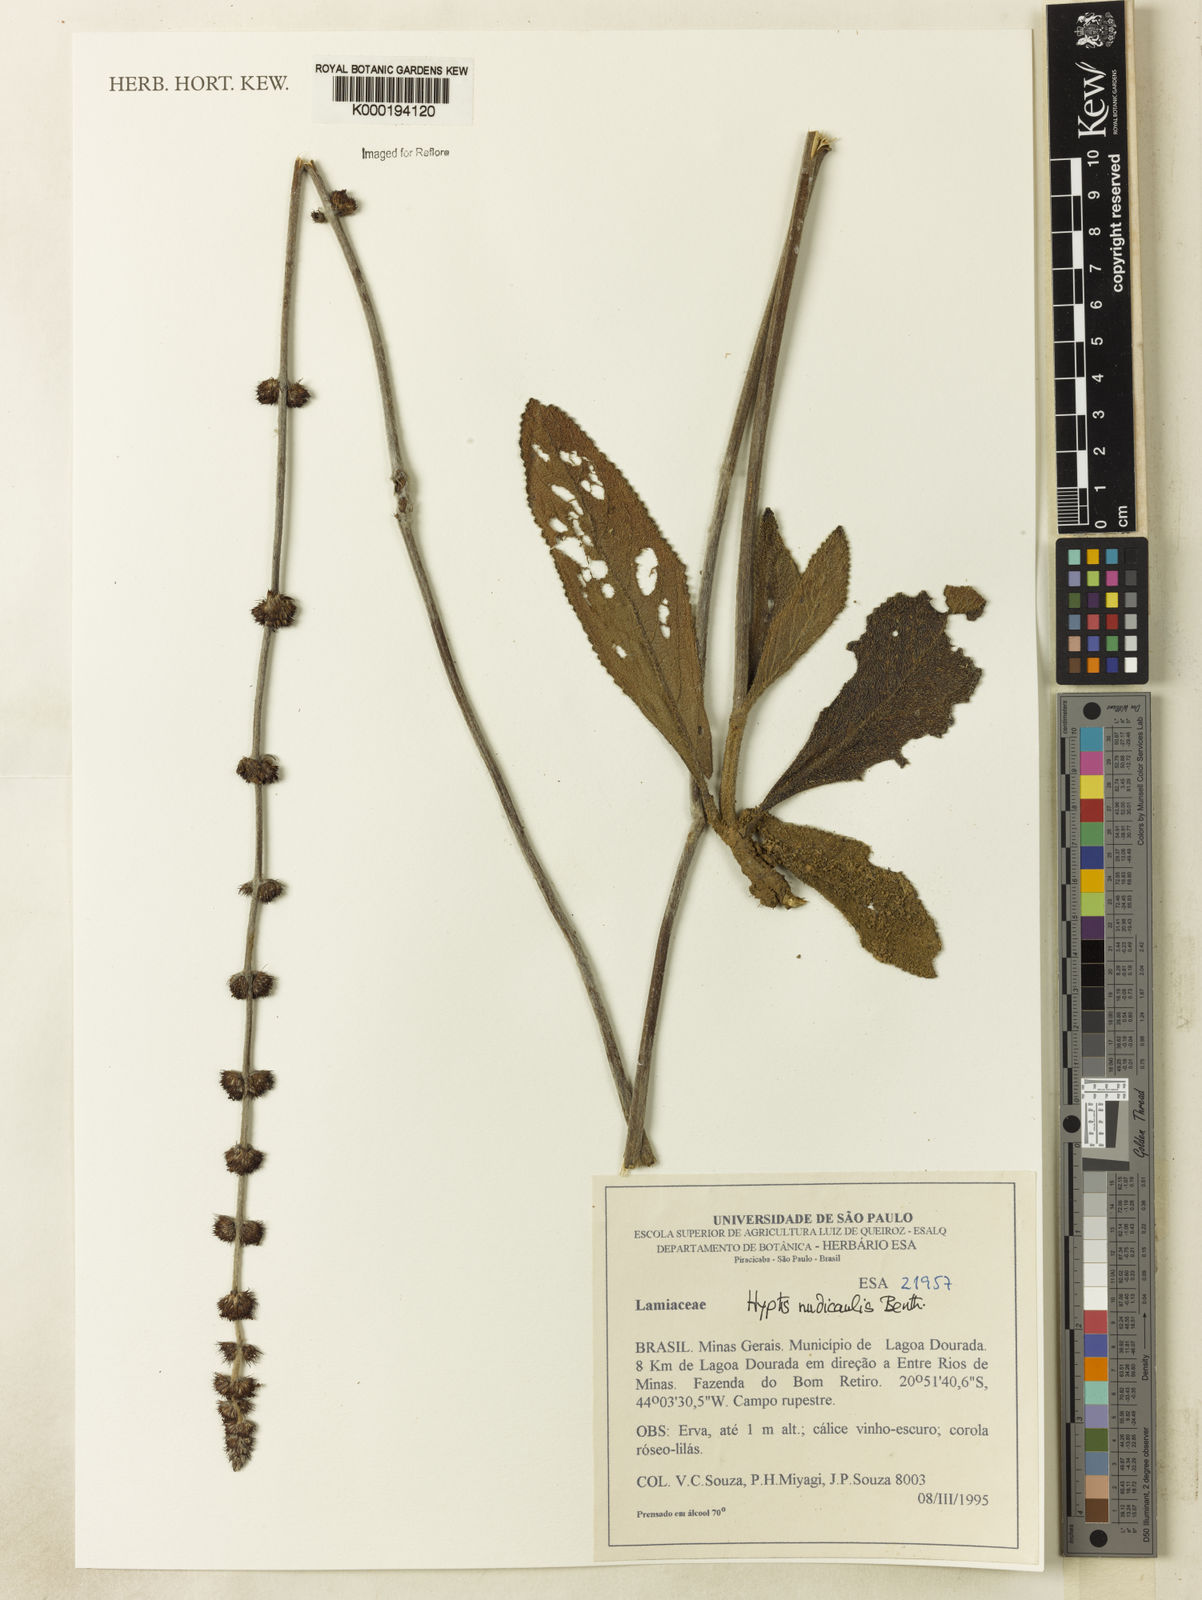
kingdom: Plantae
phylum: Tracheophyta
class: Magnoliopsida
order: Lamiales
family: Lamiaceae
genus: Hyptis
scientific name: Hyptis nudicaulis
